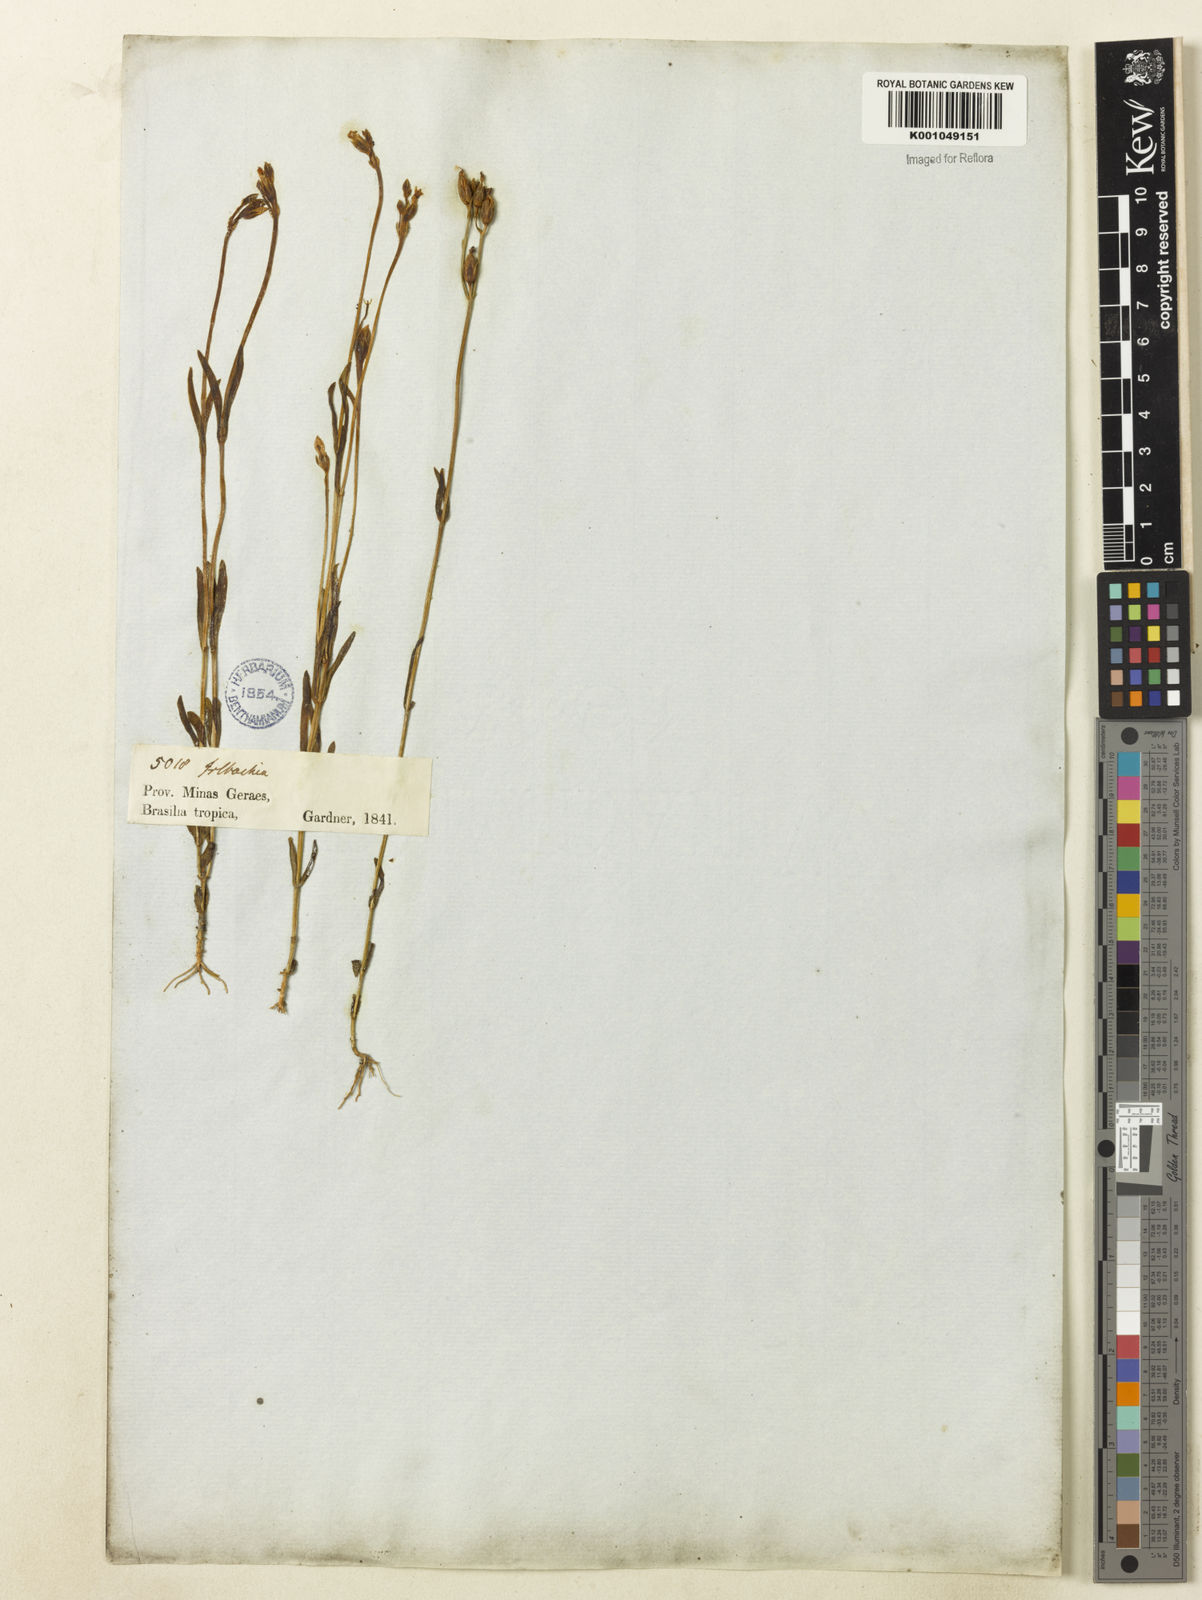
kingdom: Plantae
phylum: Tracheophyta
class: Magnoliopsida
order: Gentianales
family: Gentianaceae
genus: Tetrapollinia
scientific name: Tetrapollinia caerulescens
